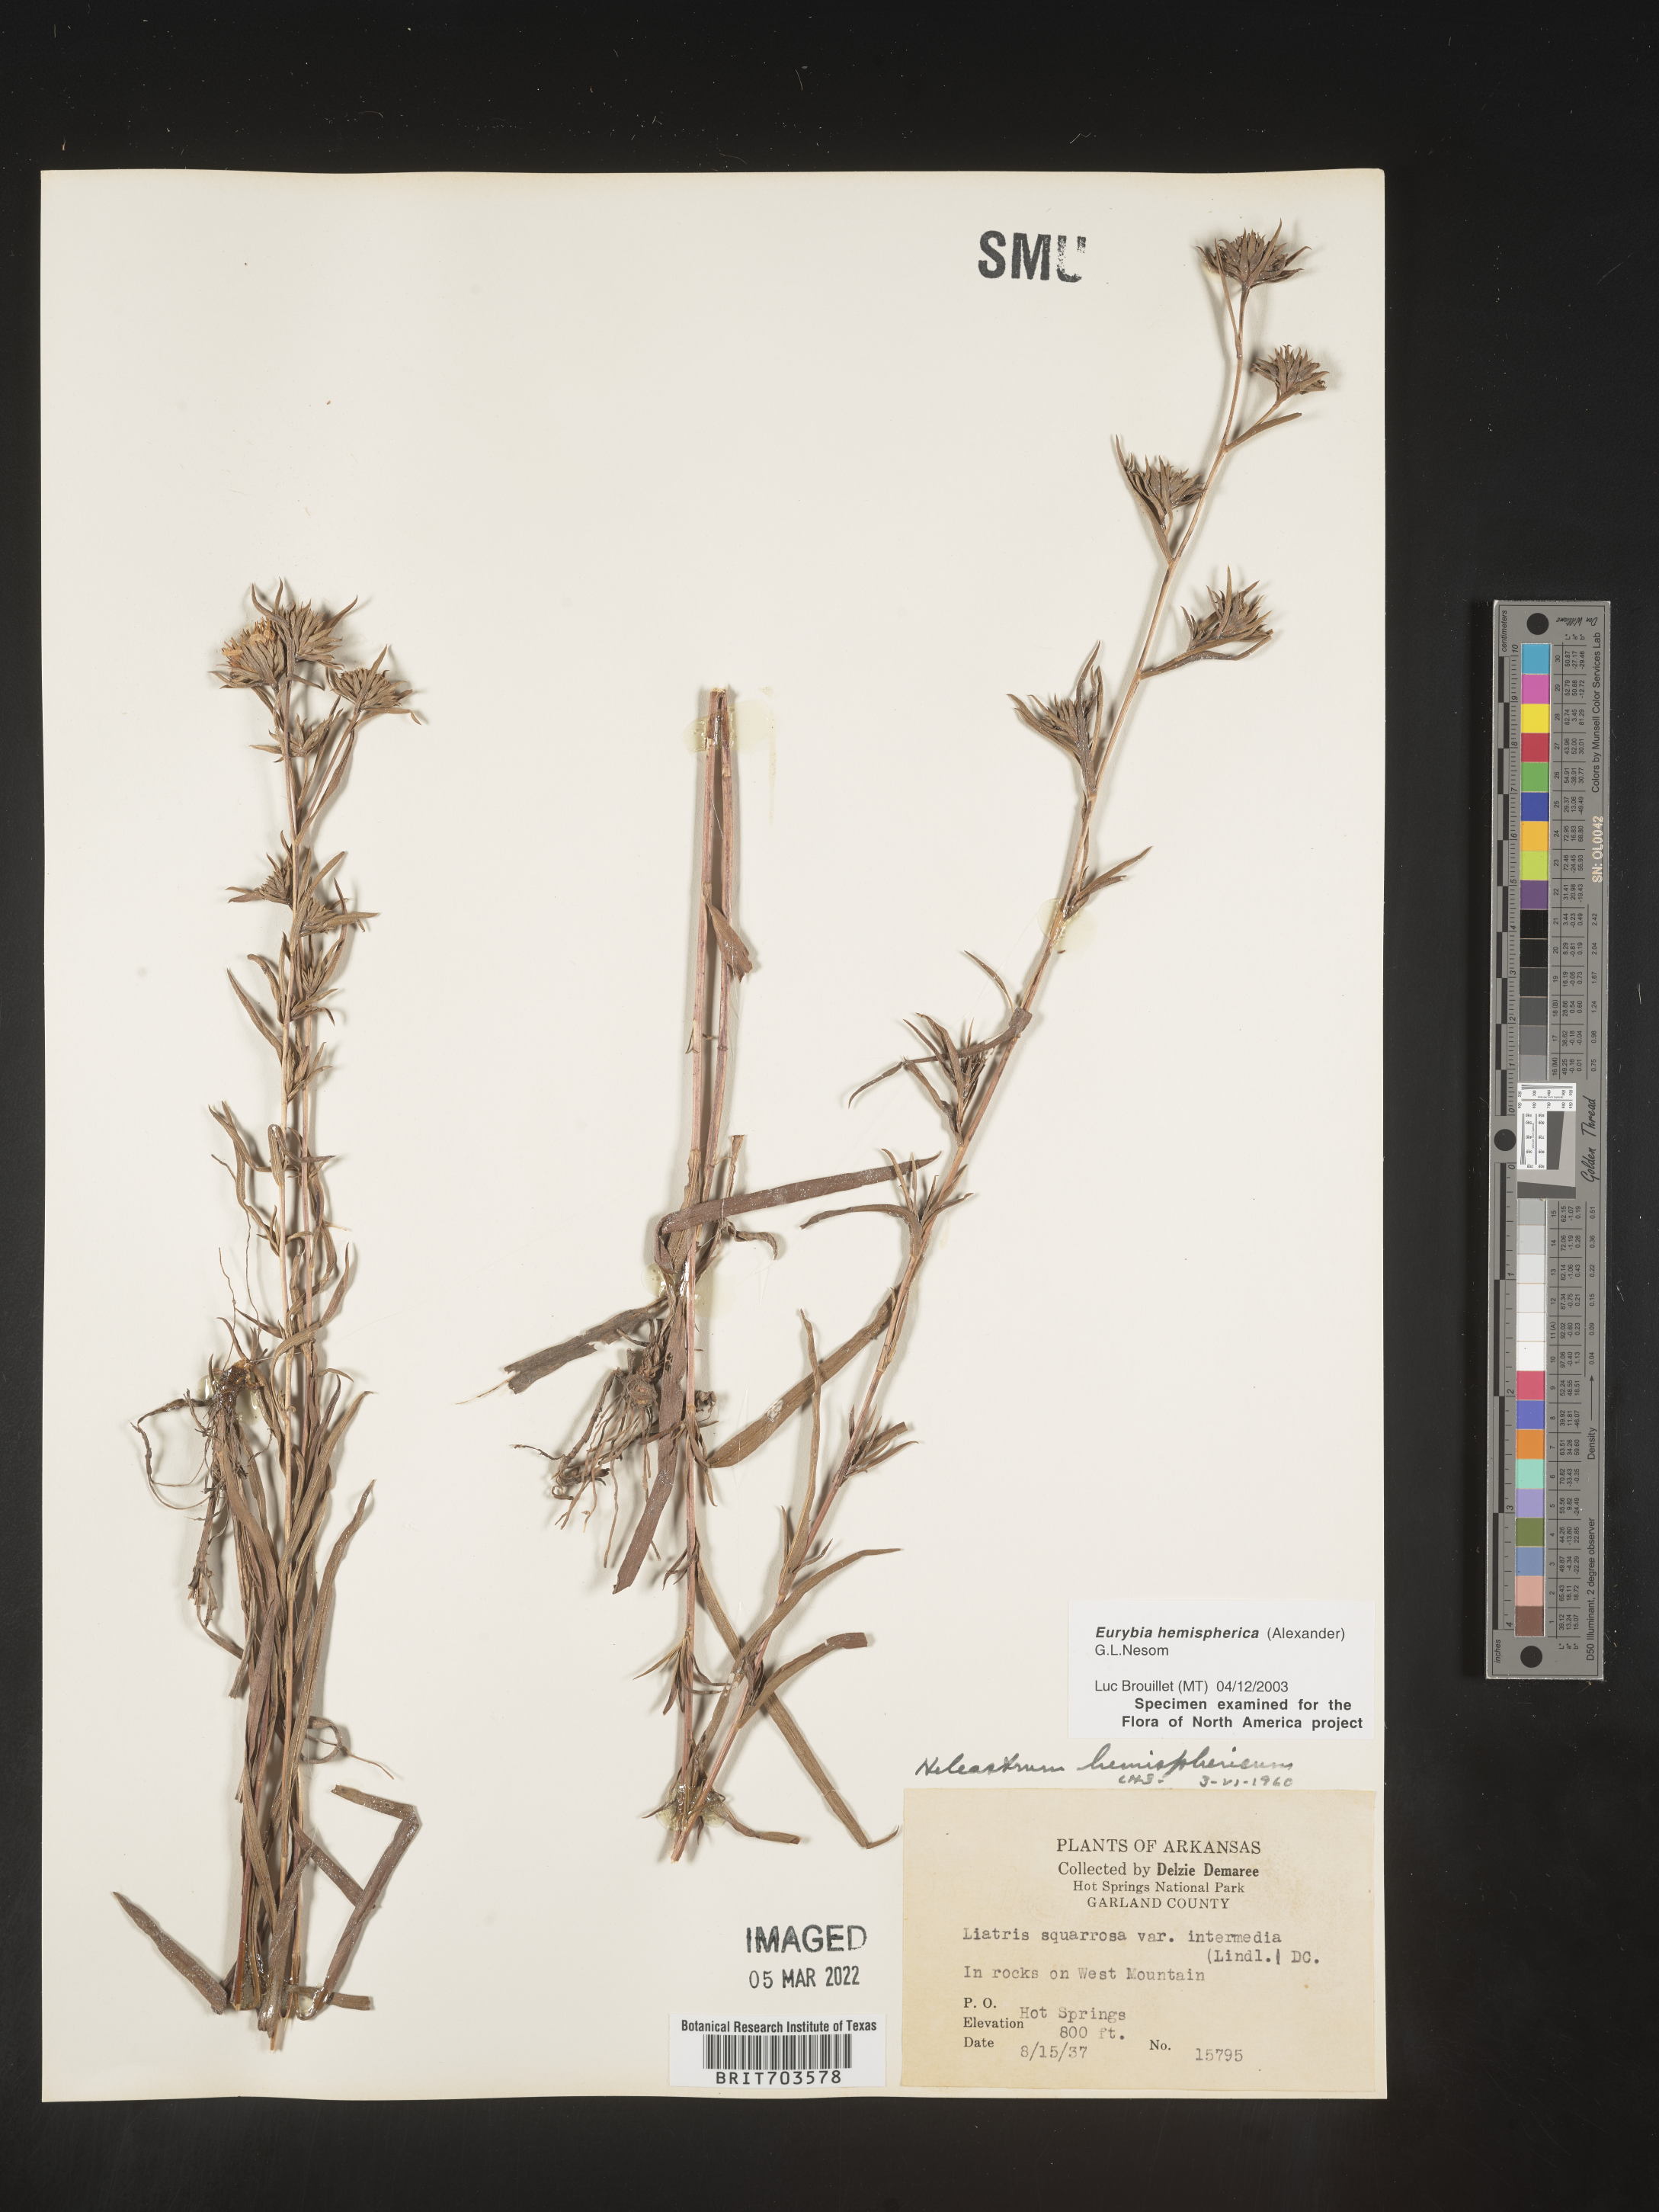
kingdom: Plantae
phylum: Tracheophyta
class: Magnoliopsida
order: Asterales
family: Asteraceae
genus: Eurybia
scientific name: Eurybia hemispherica
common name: Showy aster
